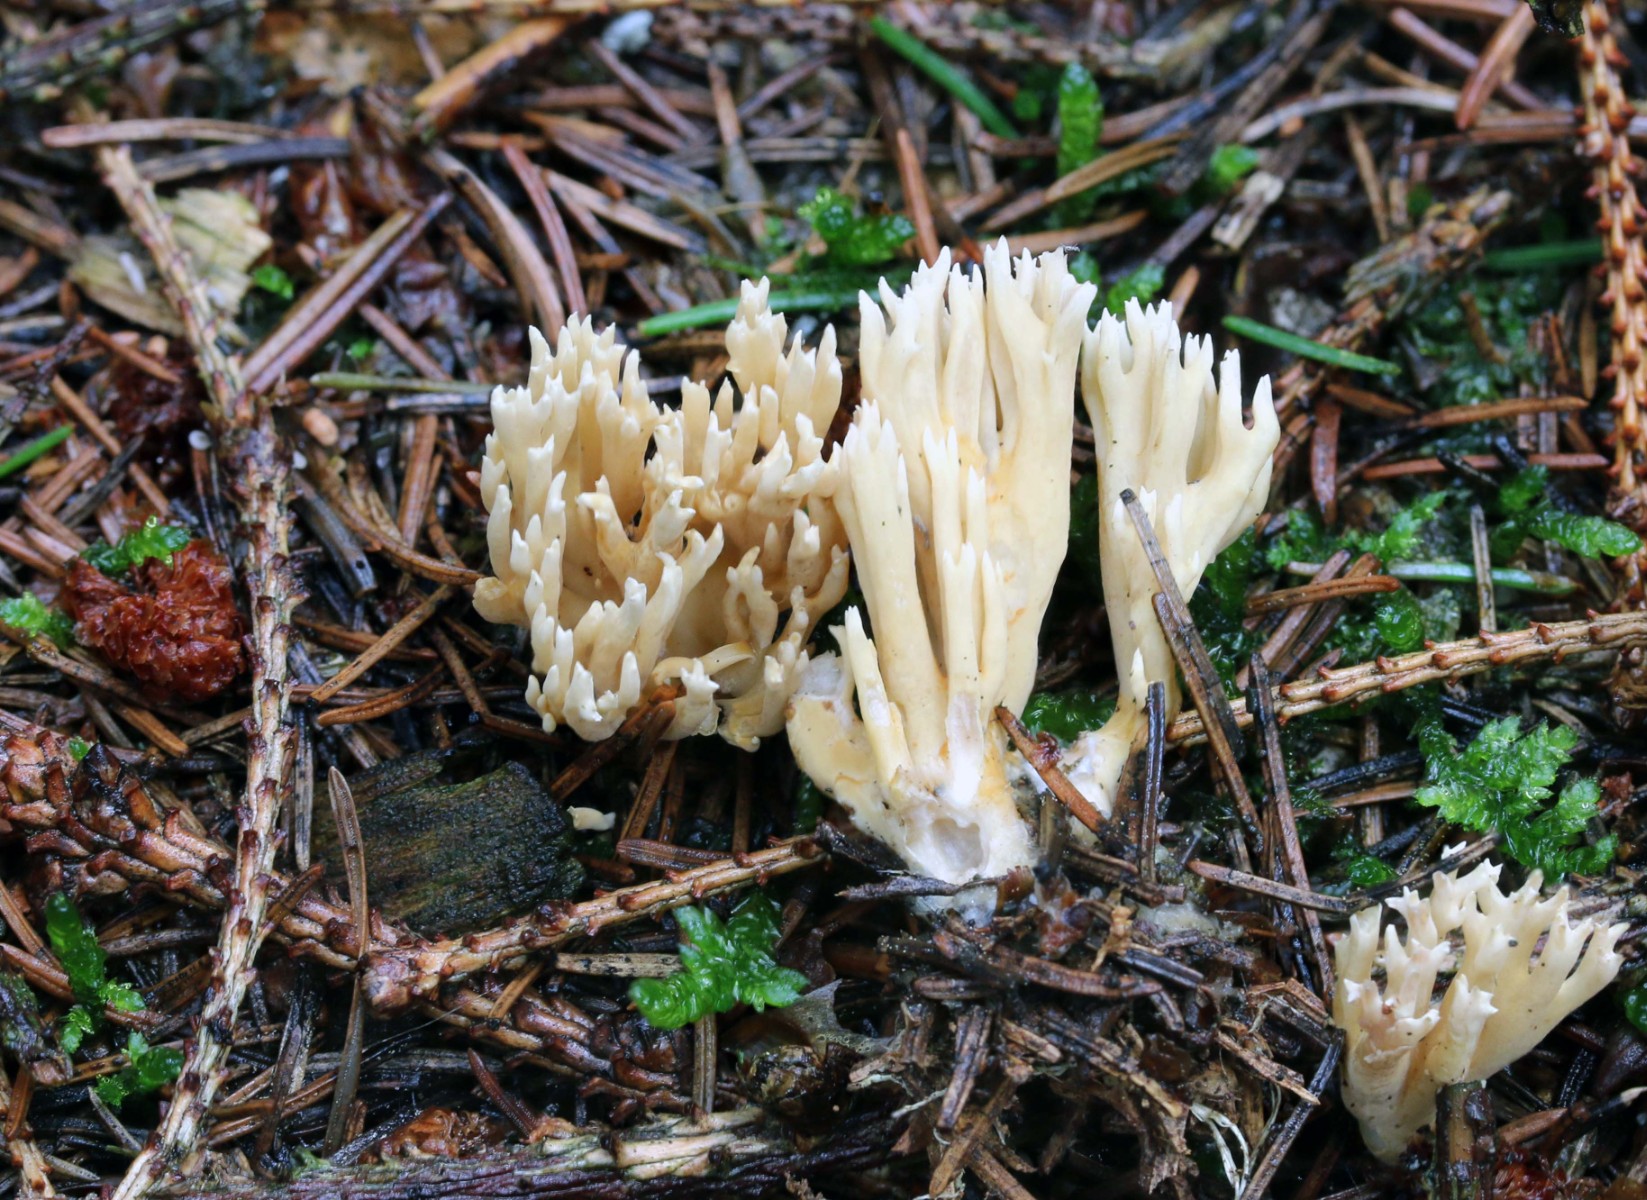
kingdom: Fungi
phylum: Basidiomycota
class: Agaricomycetes
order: Gomphales
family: Gomphaceae
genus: Phaeoclavulina
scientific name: Phaeoclavulina eumorpha
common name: gran-koralsvamp
